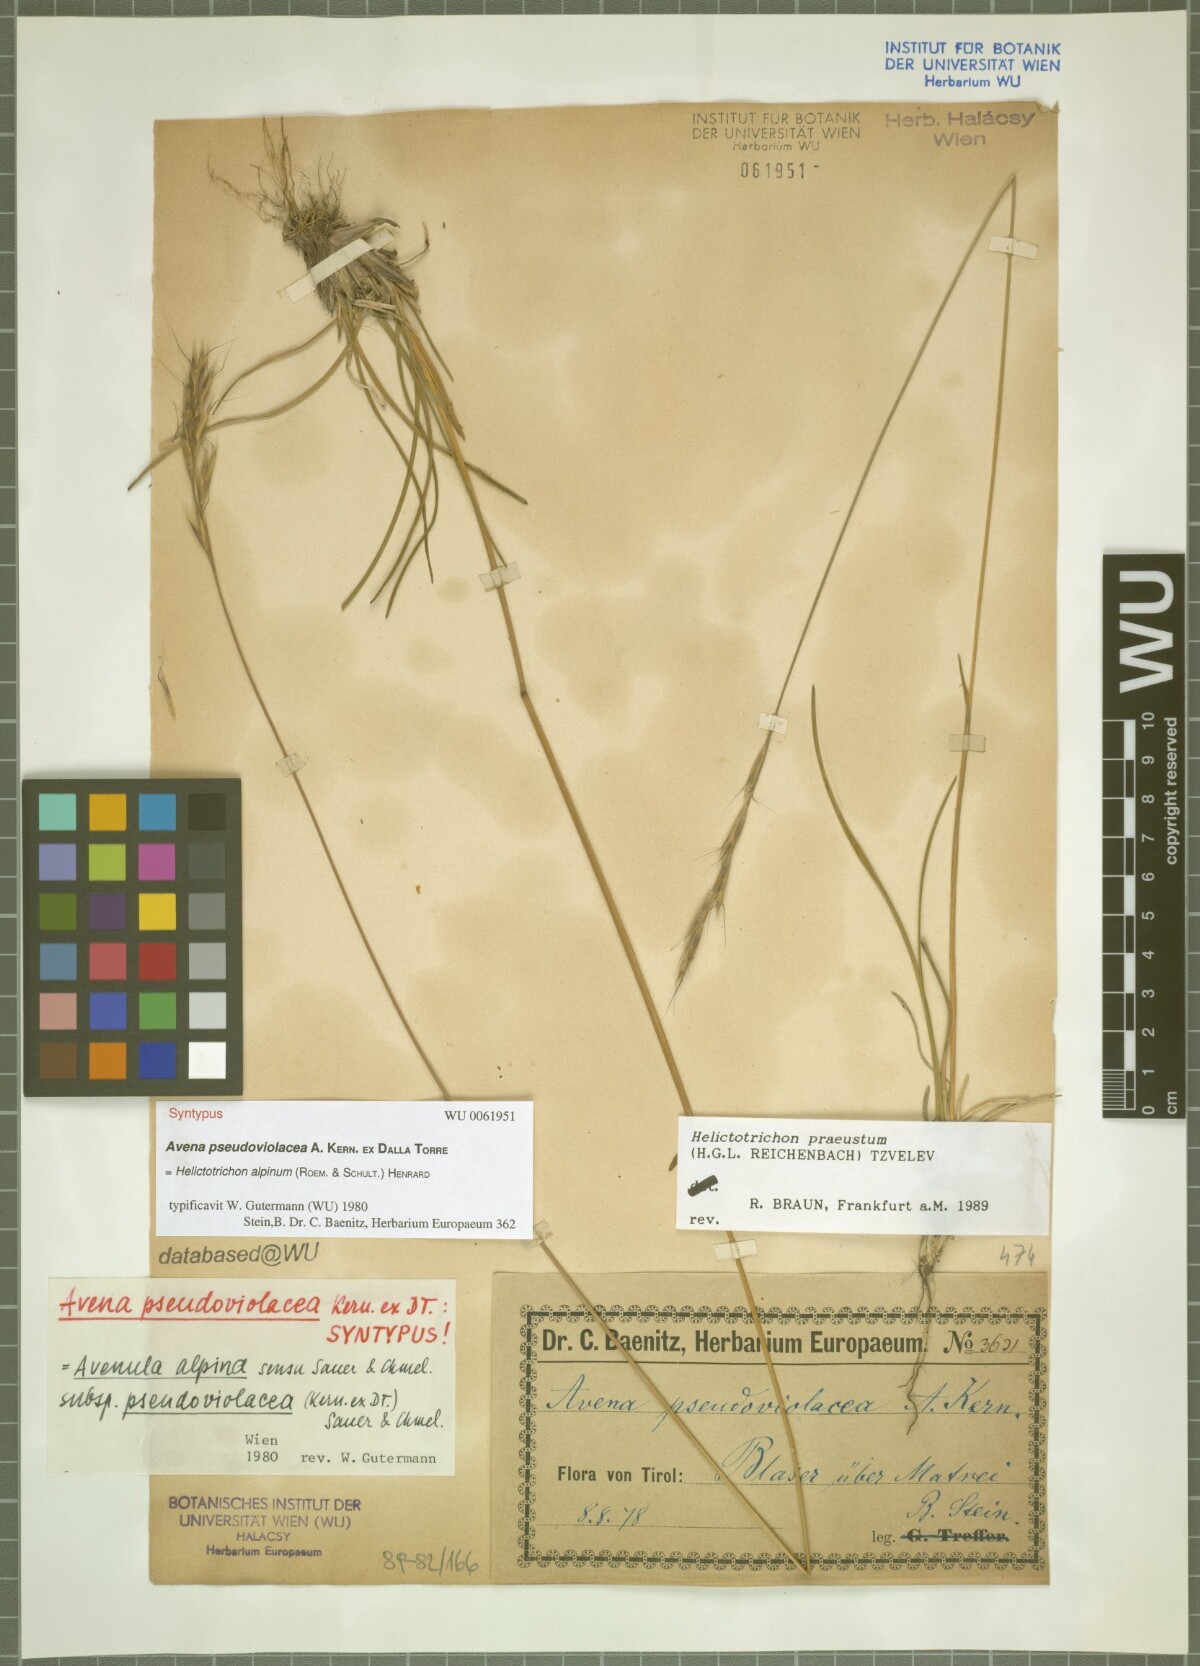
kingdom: Plantae
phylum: Tracheophyta
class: Liliopsida
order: Poales
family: Poaceae
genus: Helictochloa
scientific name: Helictochloa praeusta
